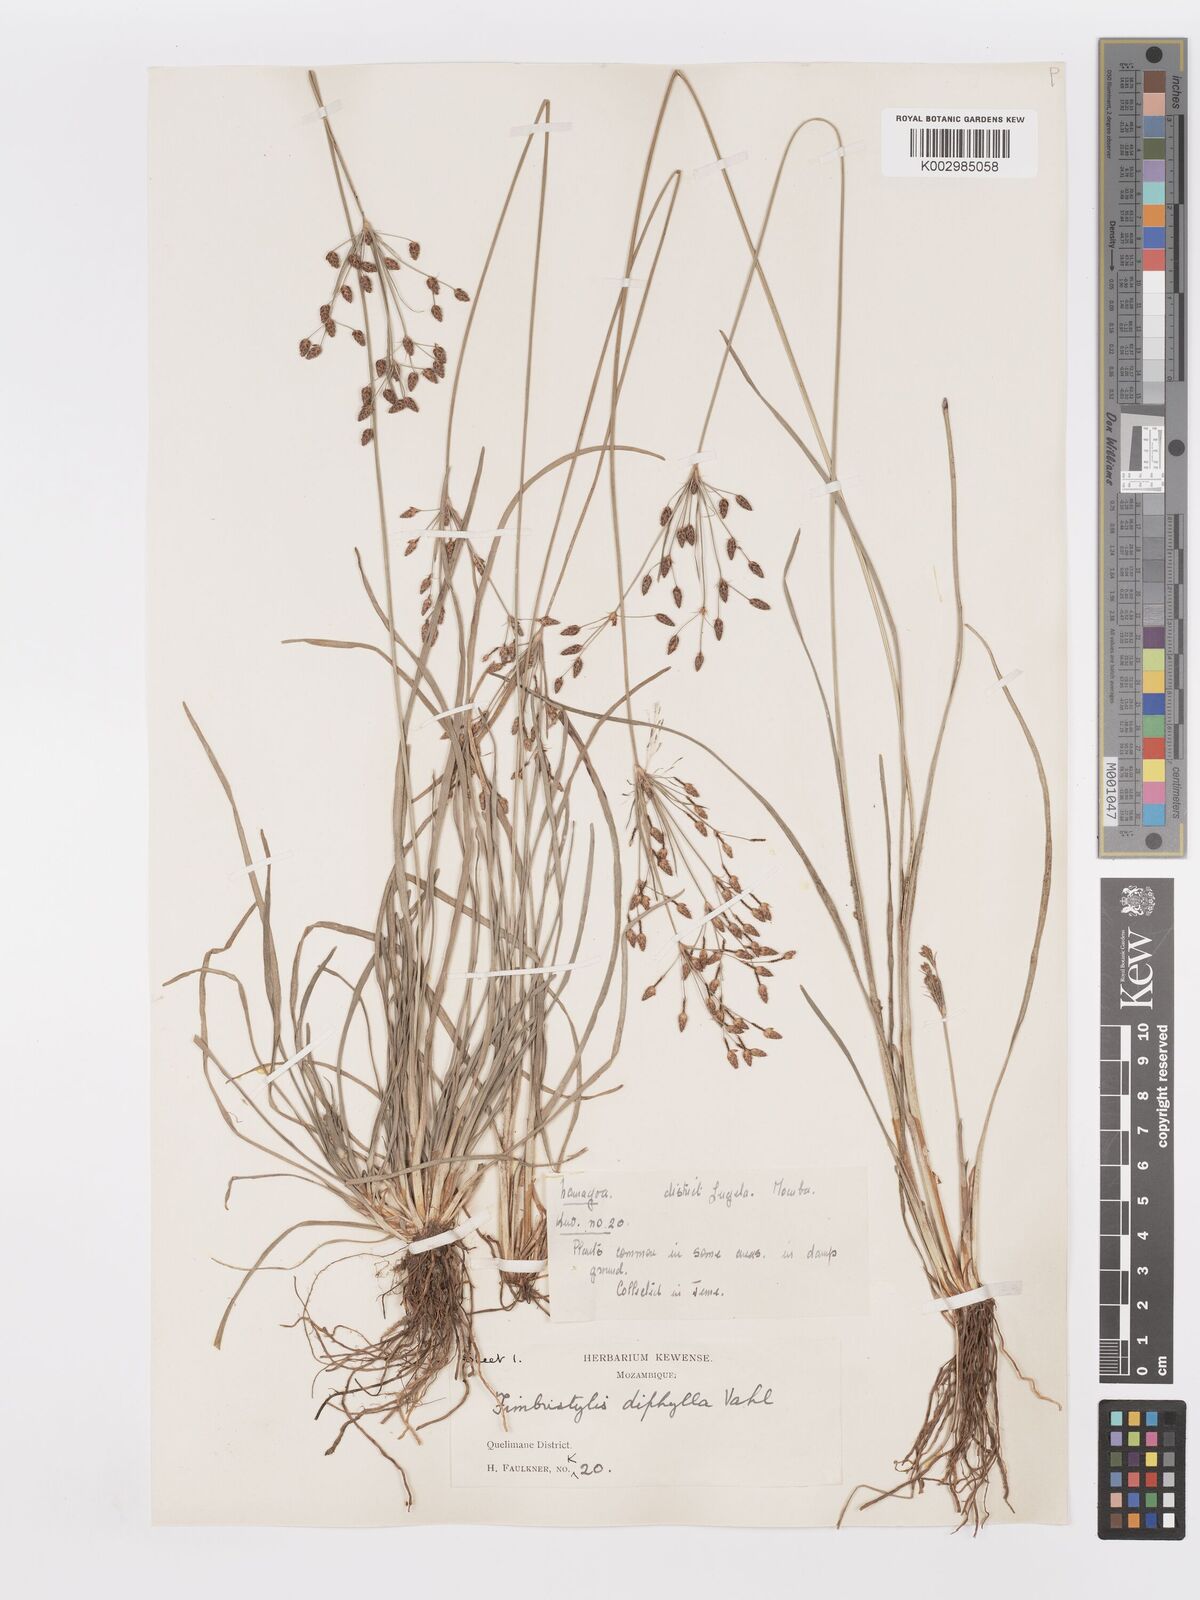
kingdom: Plantae
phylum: Tracheophyta
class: Liliopsida
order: Poales
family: Cyperaceae
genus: Fimbristylis
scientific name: Fimbristylis dichotoma
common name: Forked fimbry
